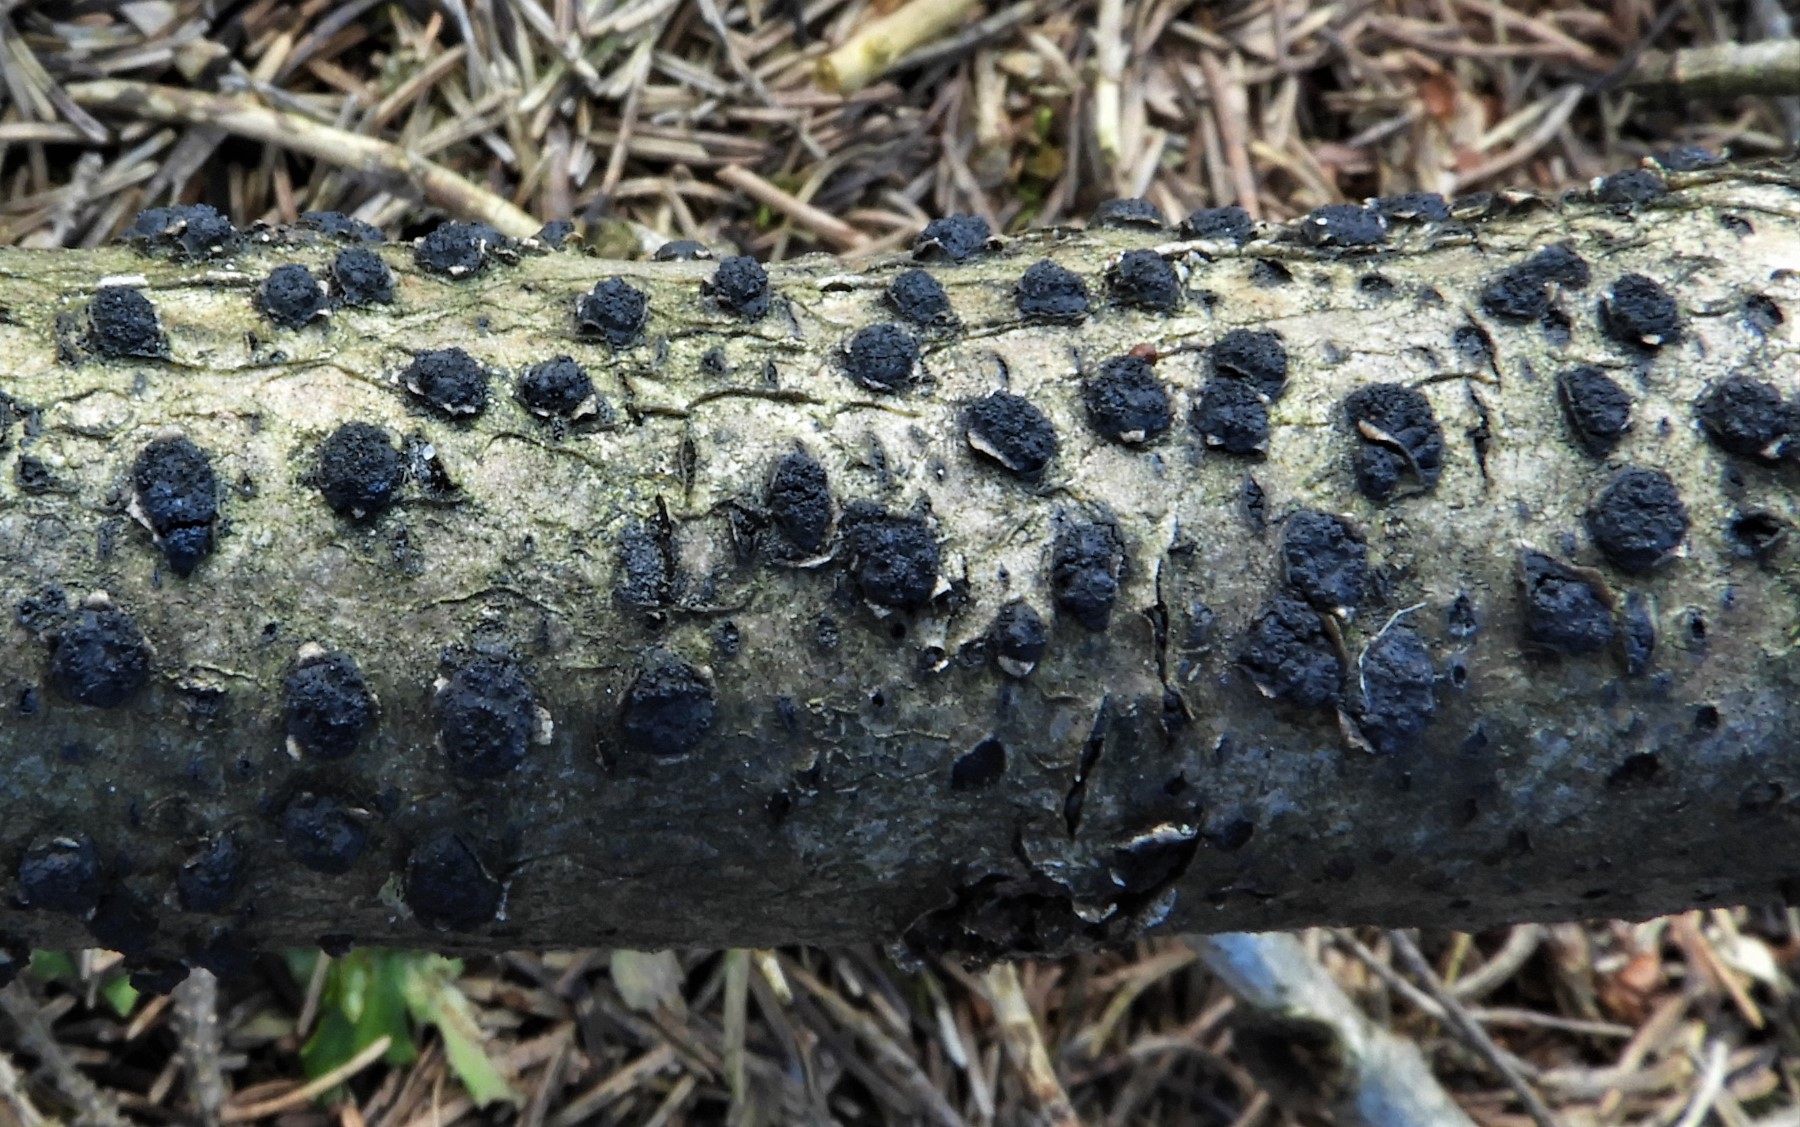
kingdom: Fungi
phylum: Ascomycota
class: Sordariomycetes
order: Xylariales
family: Diatrypaceae
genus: Diatrypella
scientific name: Diatrypella quercina
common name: ege-kulskorpe
